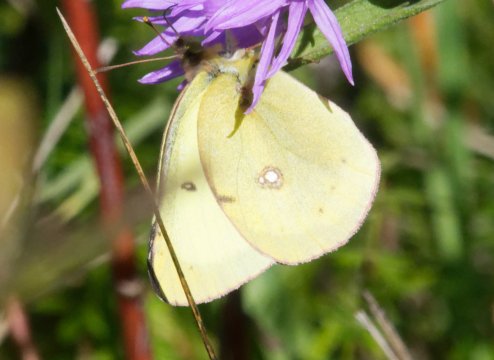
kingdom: Animalia
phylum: Arthropoda
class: Insecta
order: Lepidoptera
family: Pieridae
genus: Colias
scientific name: Colias philodice
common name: Clouded Sulphur
